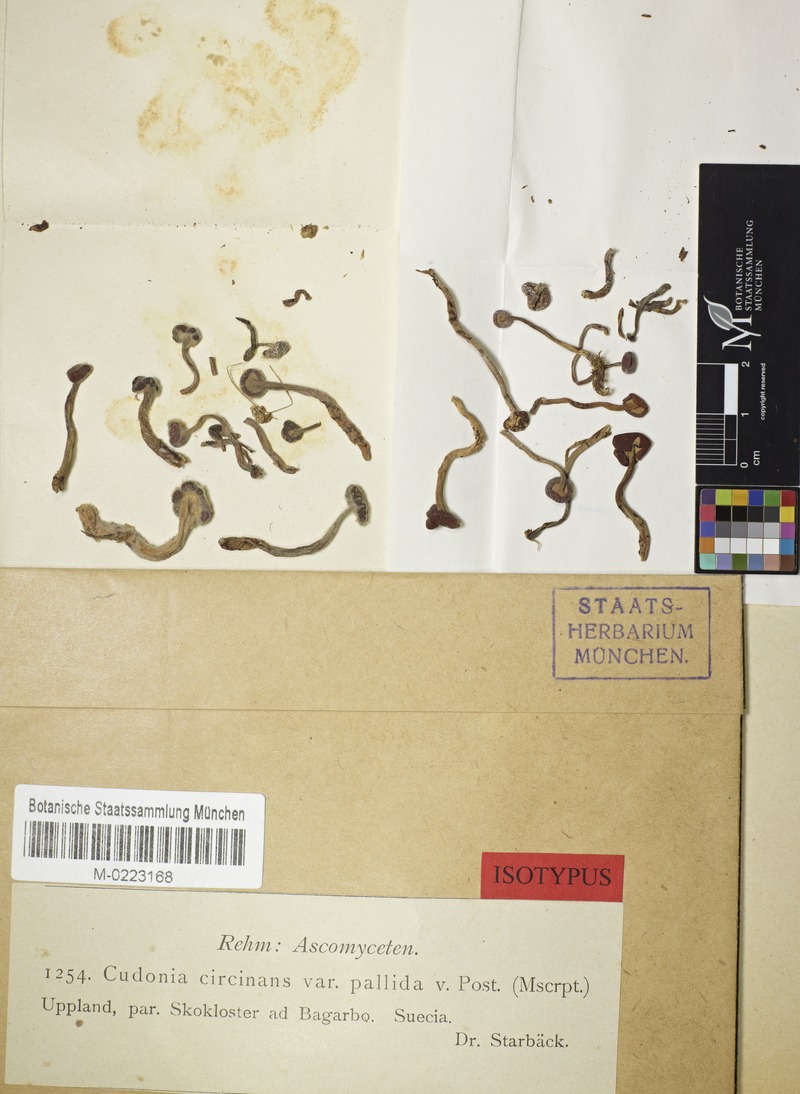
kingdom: Fungi
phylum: Ascomycota
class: Leotiomycetes
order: Rhytismatales
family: Cudoniaceae
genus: Cudonia
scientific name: Cudonia circinans
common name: Redleg jellybaby
